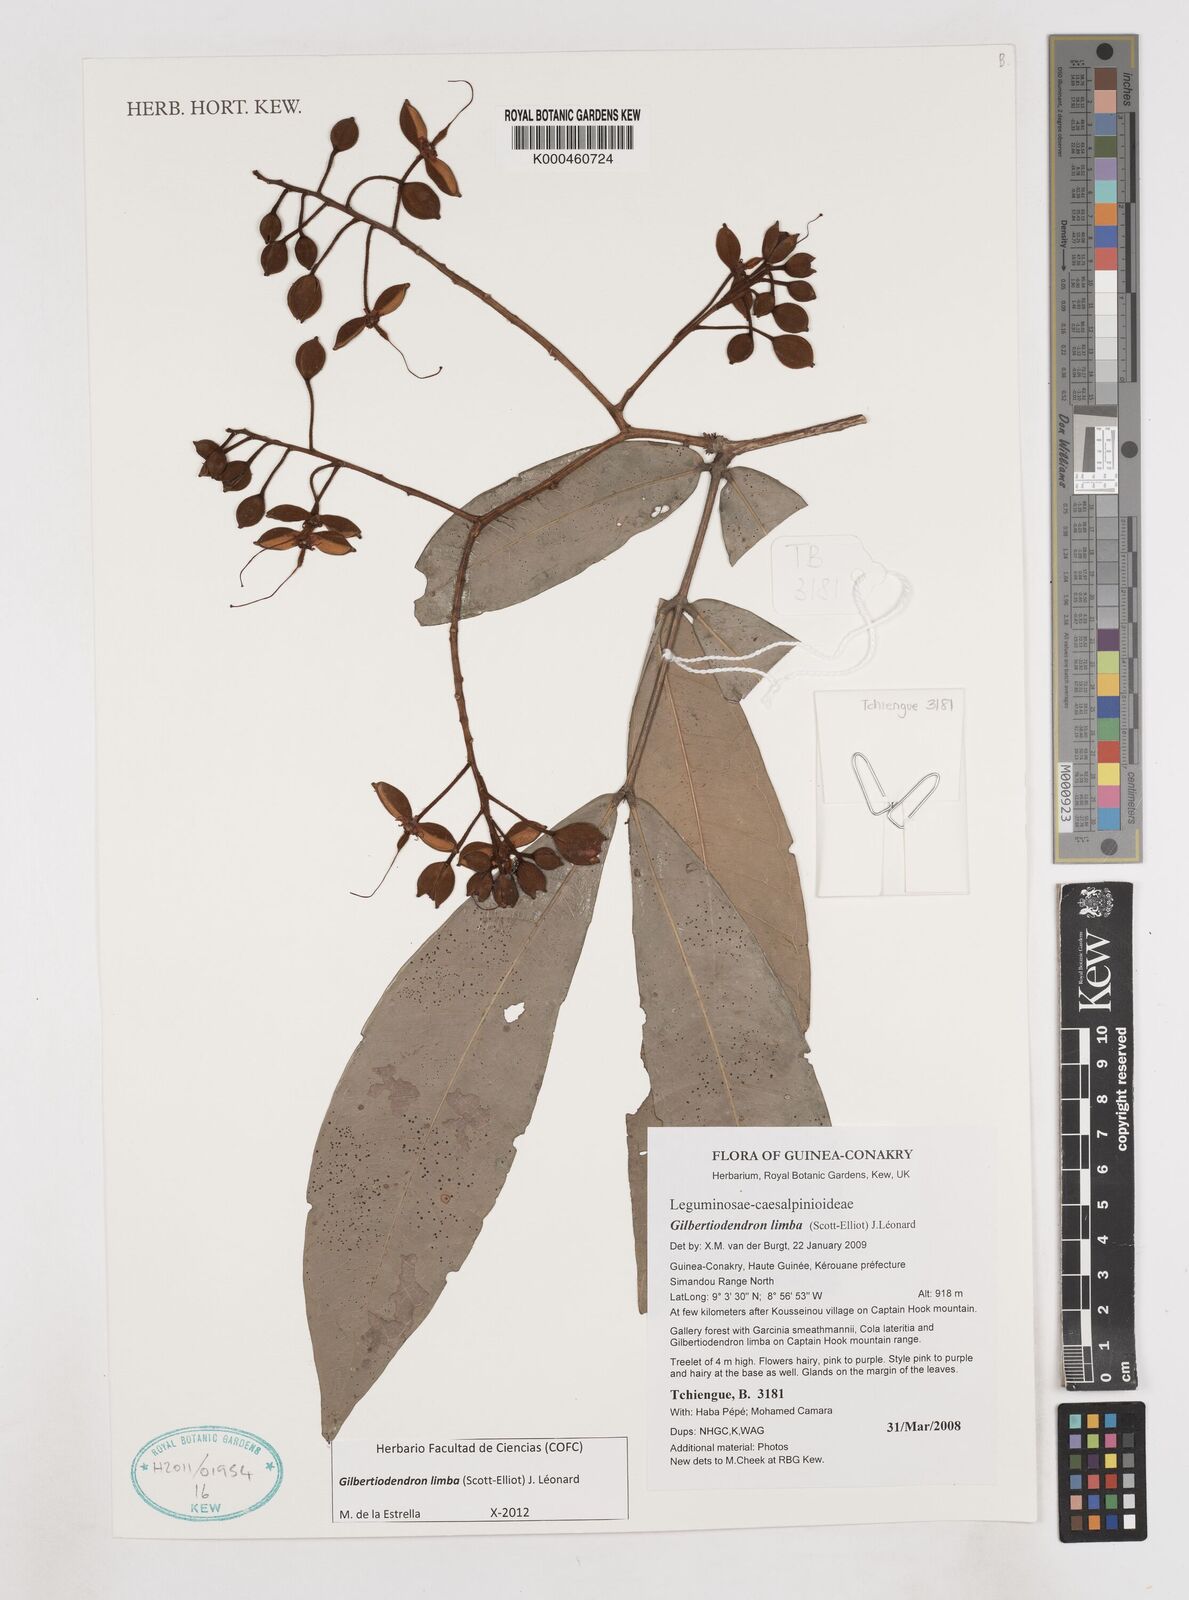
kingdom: Plantae
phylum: Tracheophyta
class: Magnoliopsida
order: Fabales
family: Fabaceae
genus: Gilbertiodendron
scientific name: Gilbertiodendron limba
